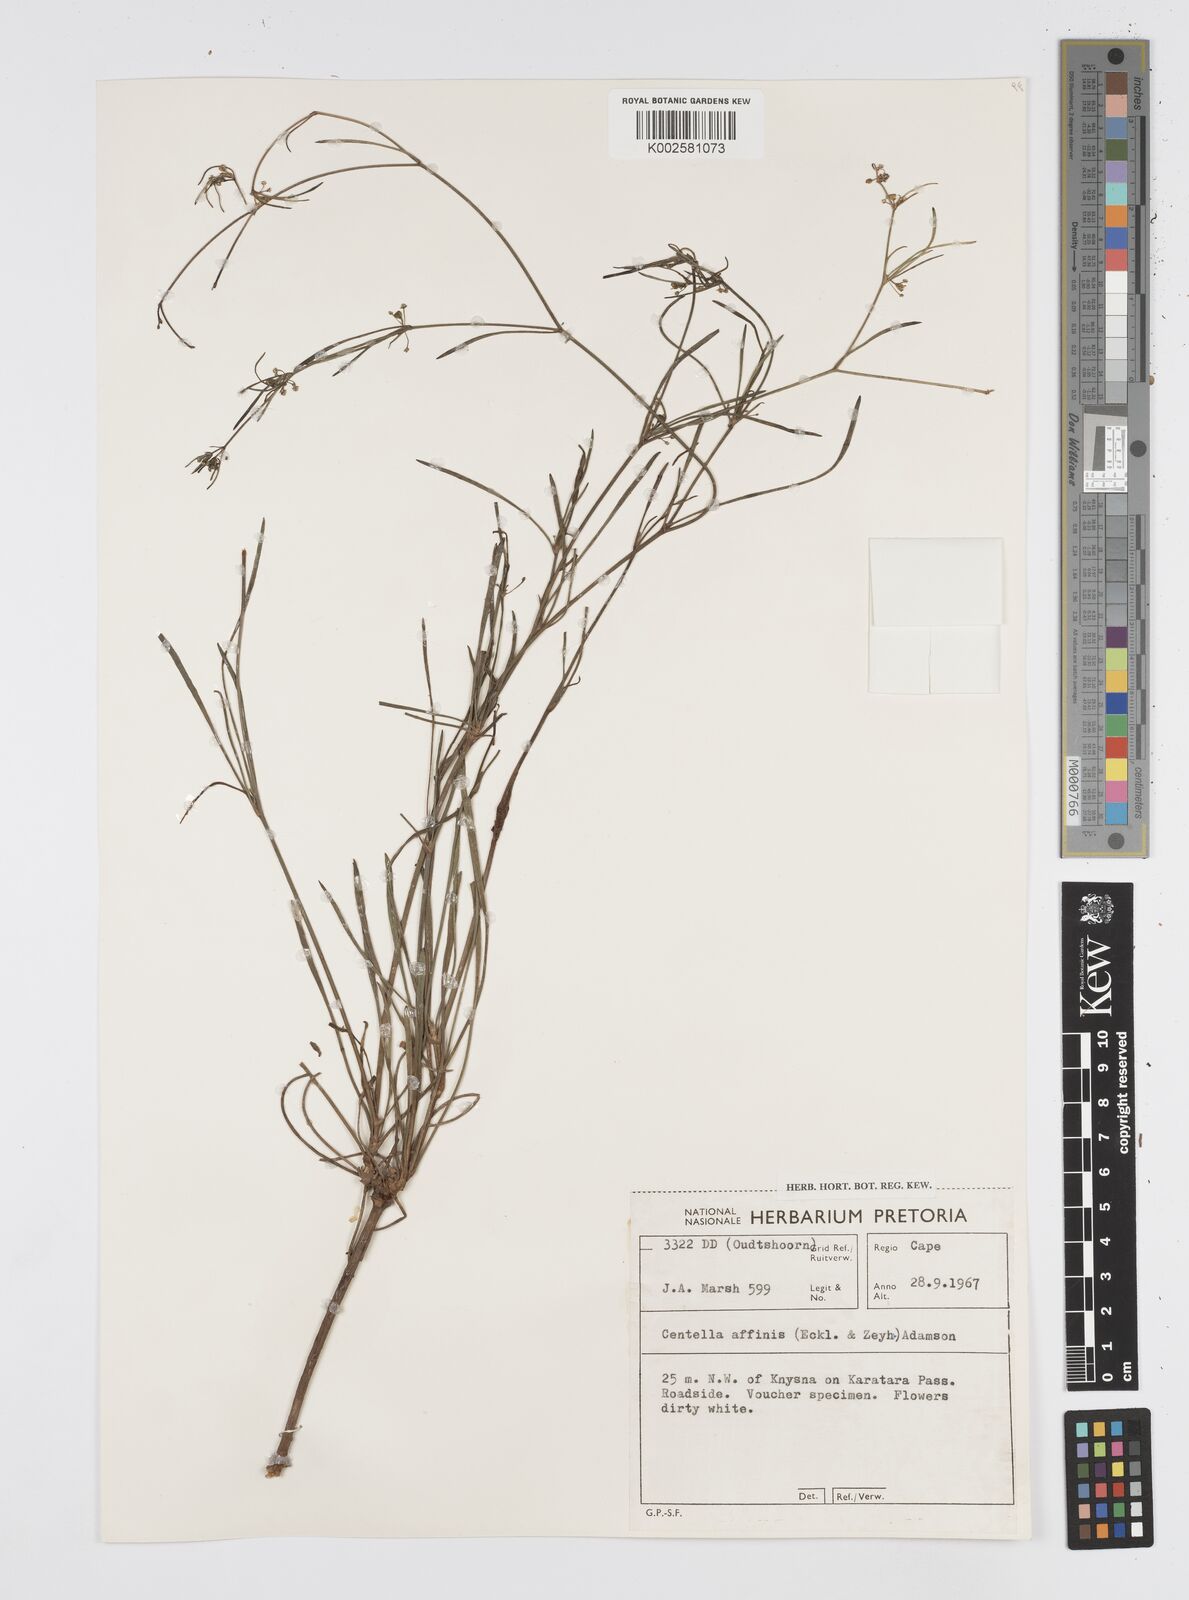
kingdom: Plantae
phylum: Tracheophyta
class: Magnoliopsida
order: Apiales
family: Apiaceae
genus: Centella
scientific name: Centella affinis
